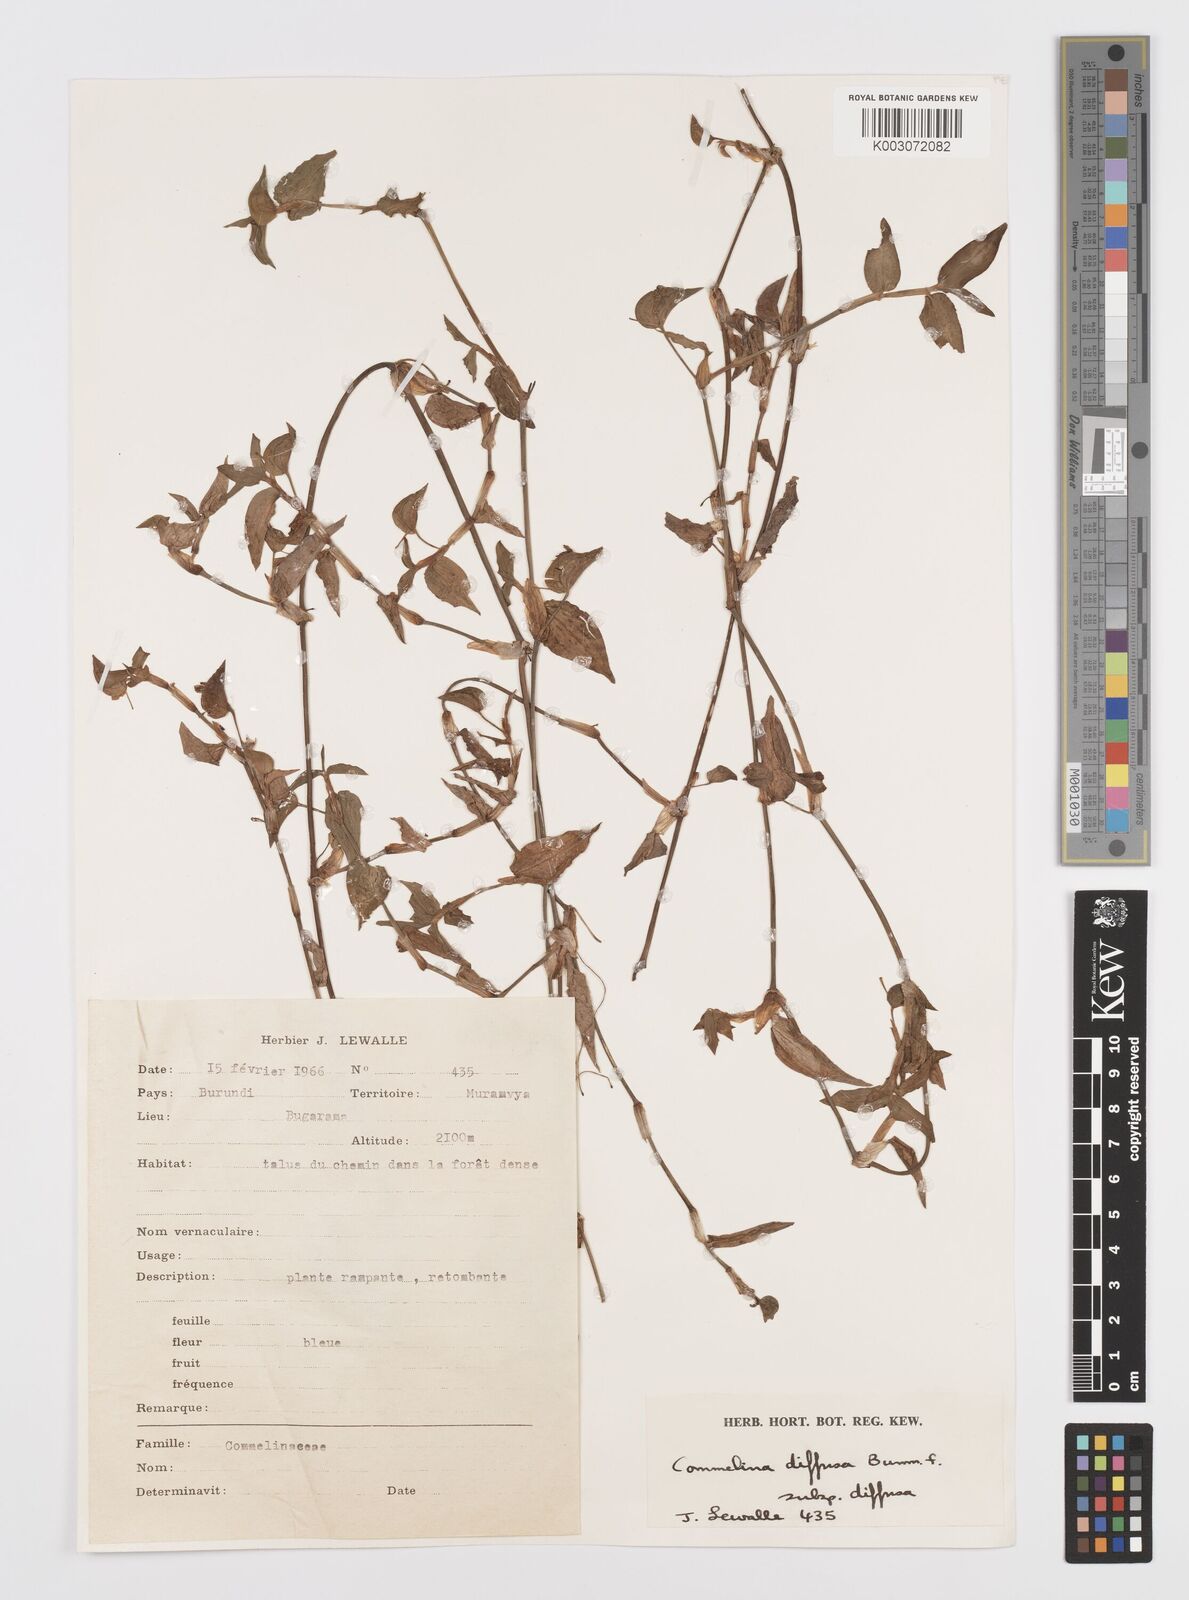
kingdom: Plantae
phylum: Tracheophyta
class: Liliopsida
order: Commelinales
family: Commelinaceae
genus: Commelina
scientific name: Commelina diffusa
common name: Climbing dayflower
